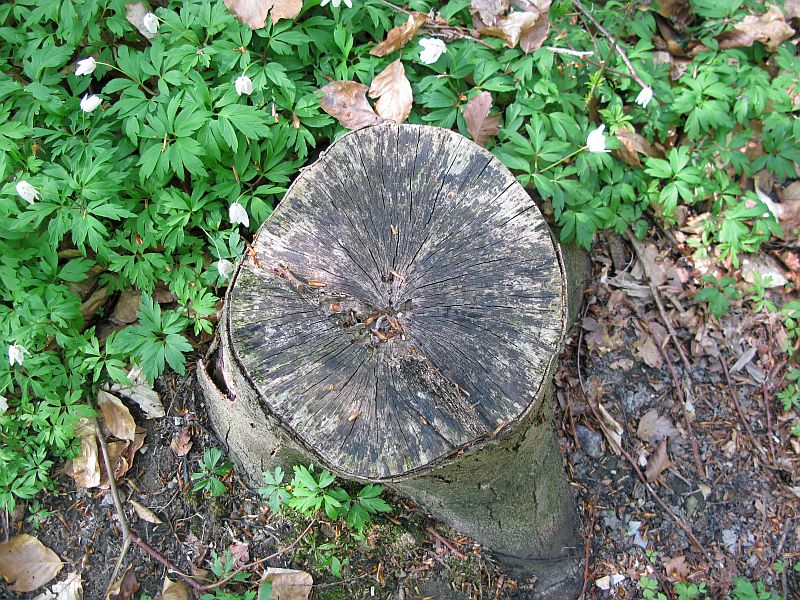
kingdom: Fungi
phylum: Ascomycota
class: Leotiomycetes
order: Helotiales
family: Helotiaceae
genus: Bispora
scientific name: Bispora pallescens
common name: måtte-snitskive
